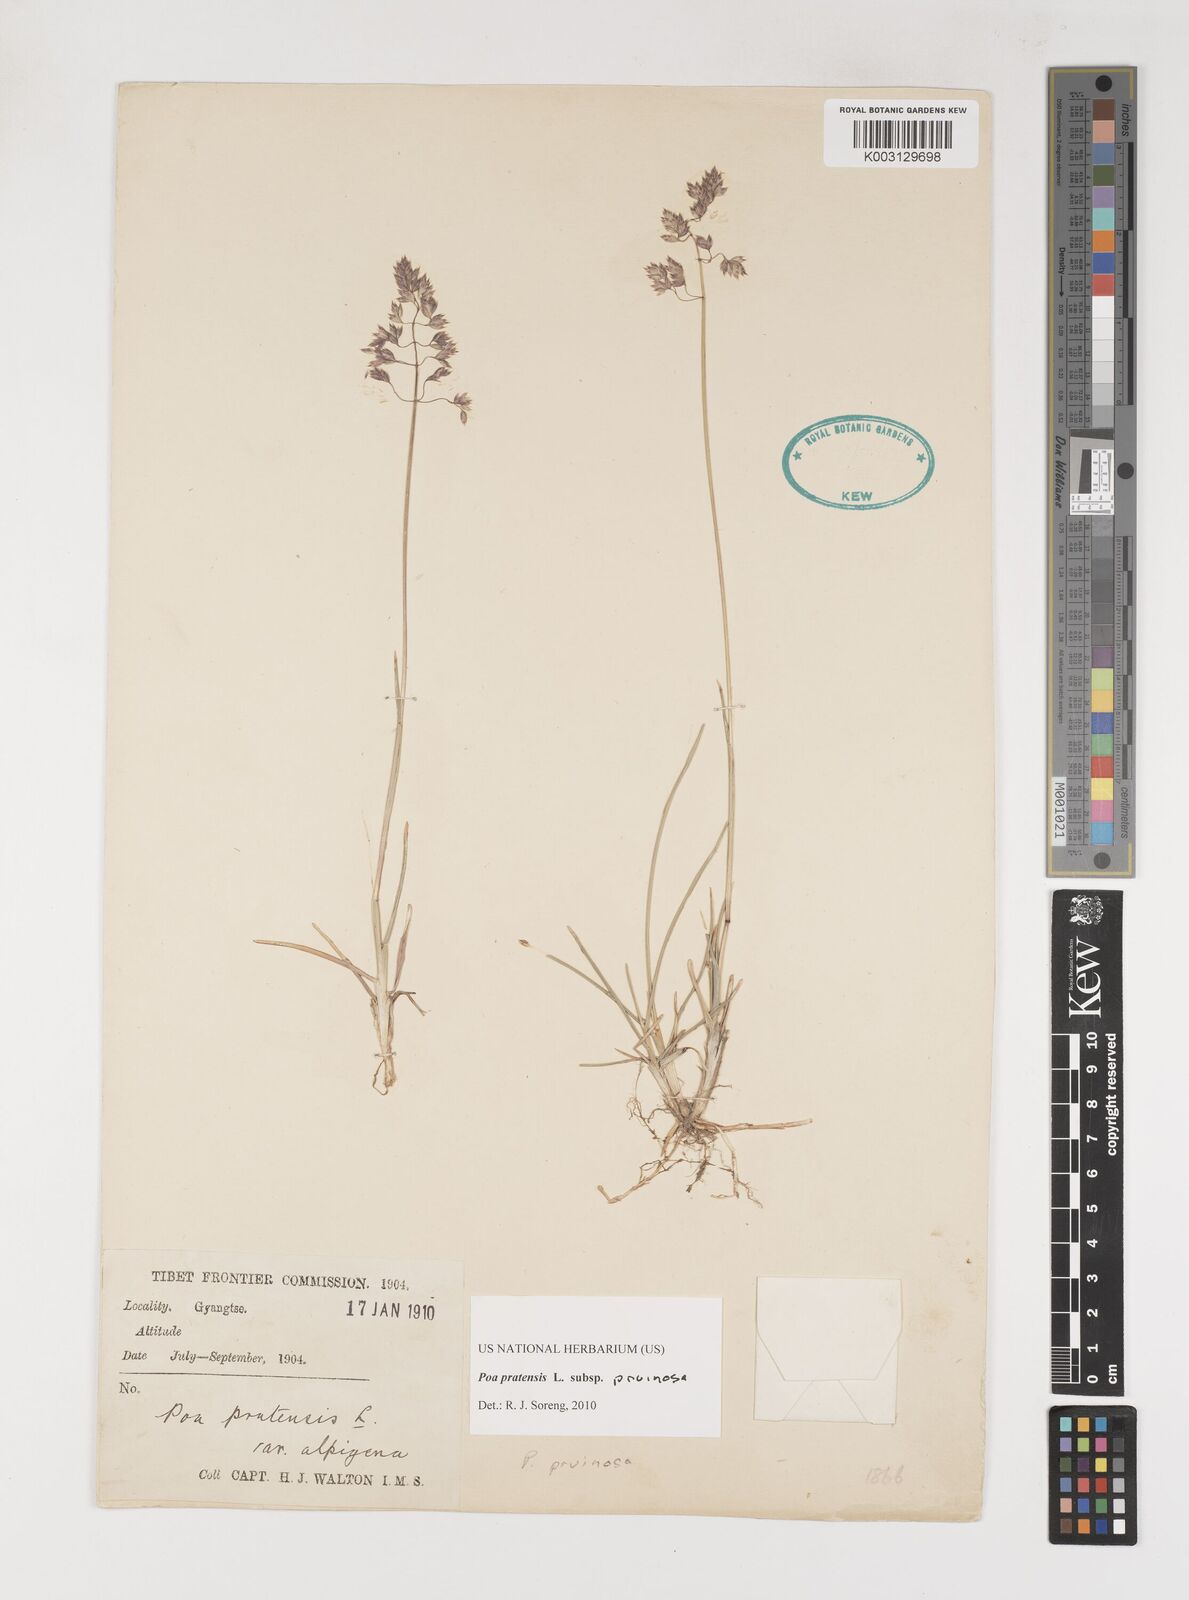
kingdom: Plantae
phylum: Tracheophyta
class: Liliopsida
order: Poales
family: Poaceae
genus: Poa
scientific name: Poa tianschanica
